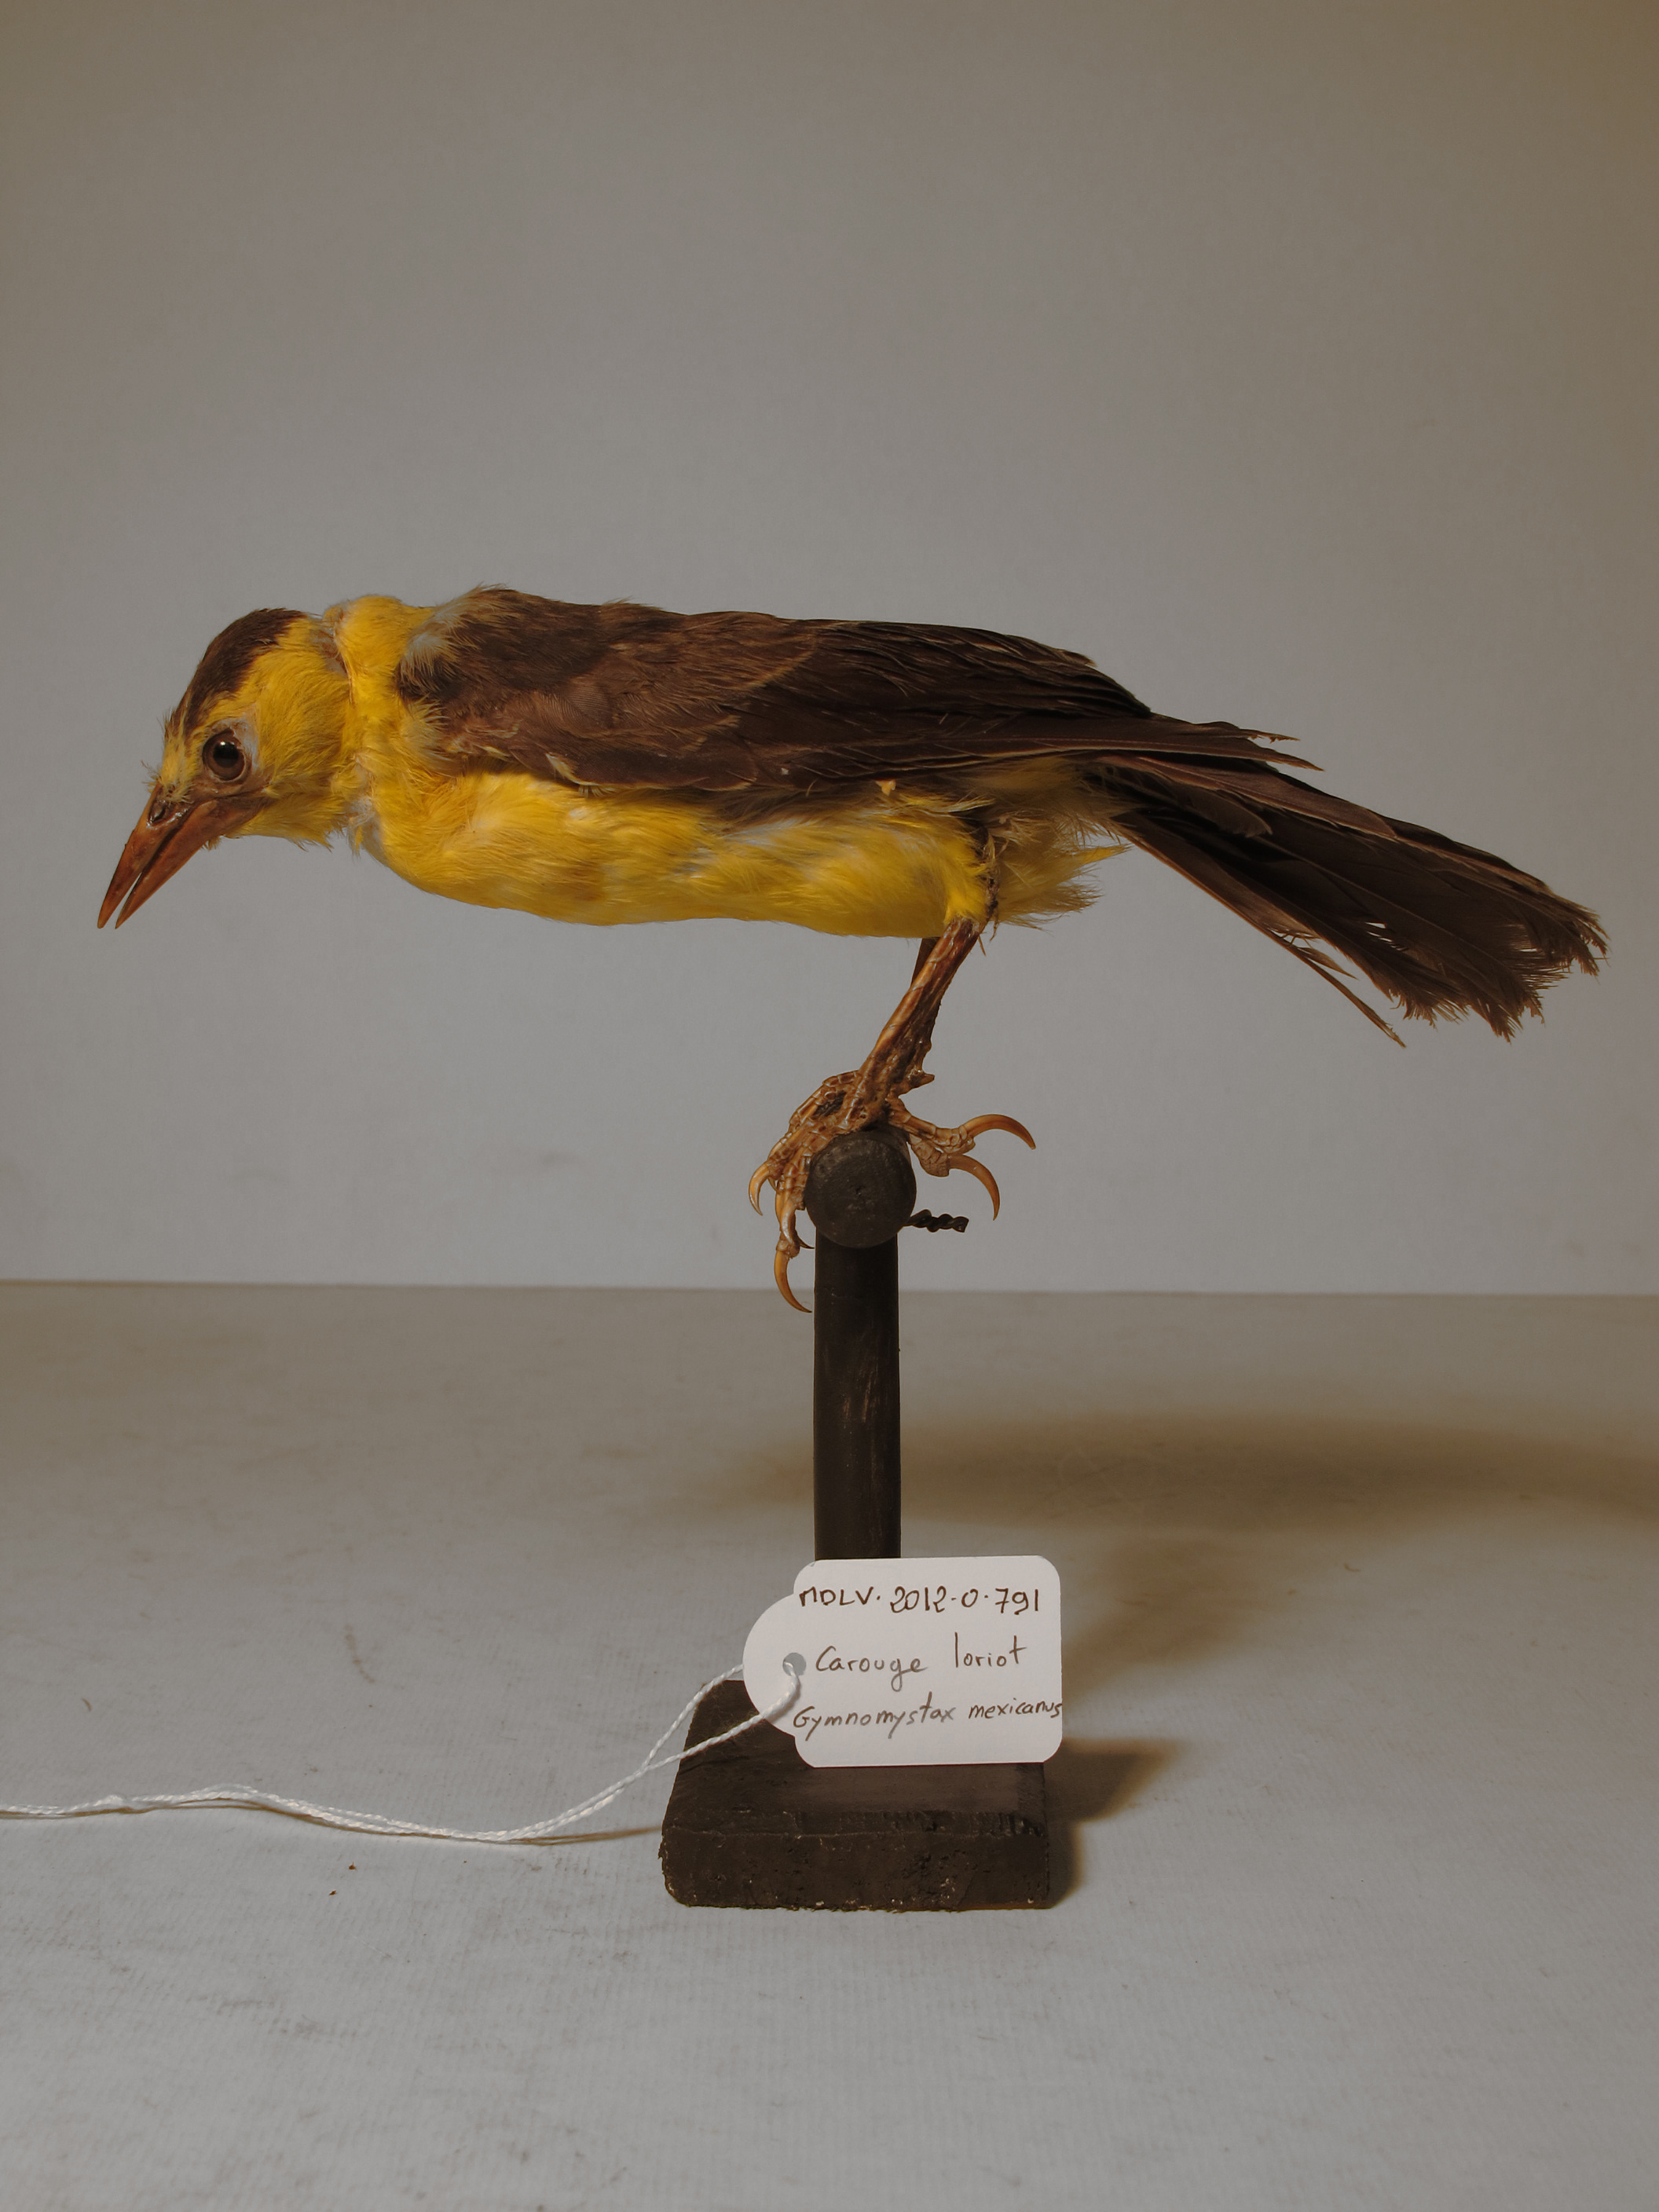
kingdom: Animalia
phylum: Chordata
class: Aves
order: Passeriformes
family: Icteridae
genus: Gymnomystax
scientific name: Gymnomystax mexicanus
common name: Oriole Blackbird
